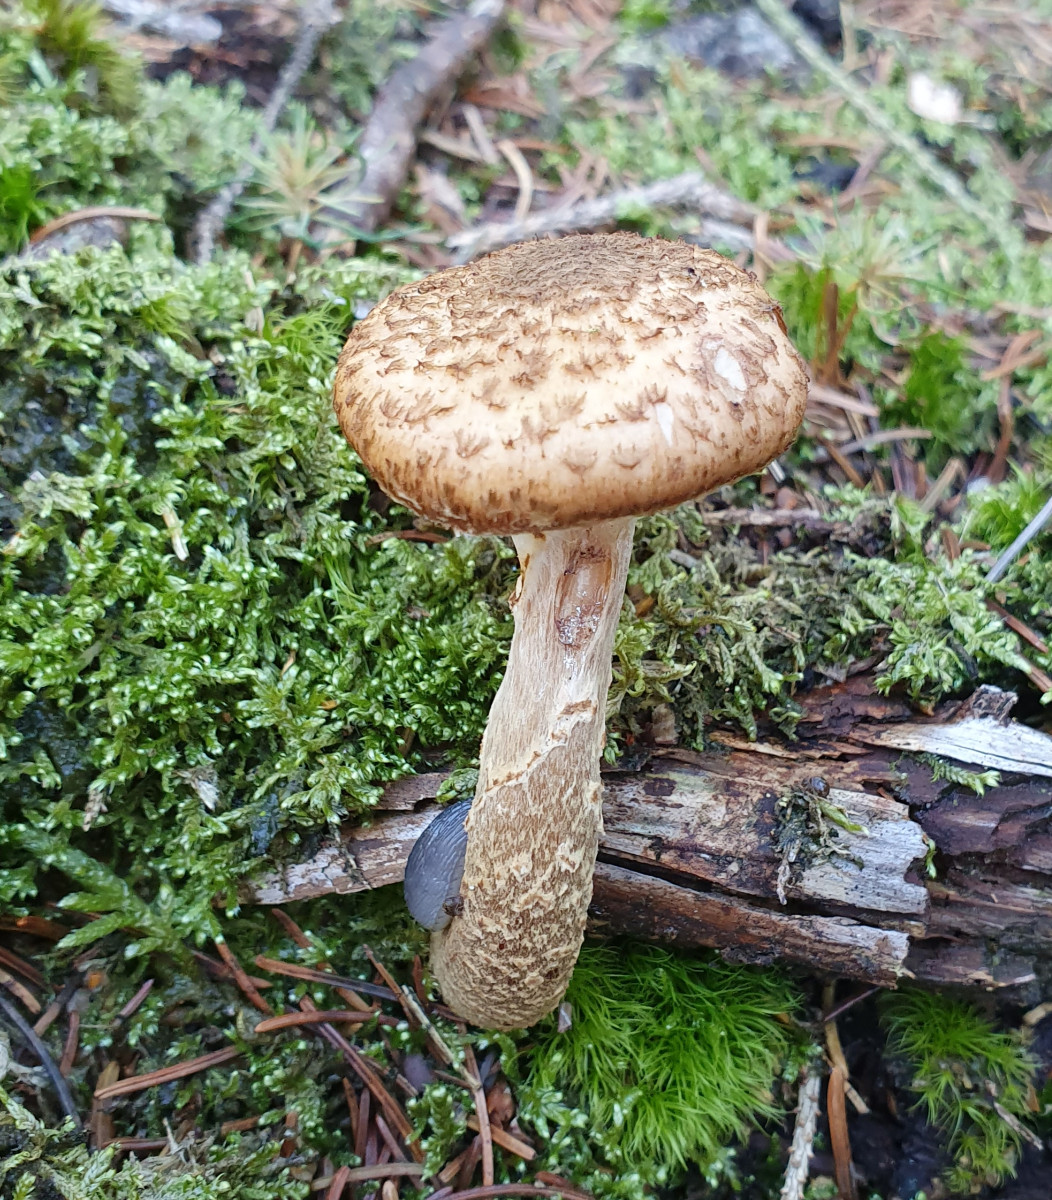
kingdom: Fungi
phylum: Basidiomycota
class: Agaricomycetes
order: Agaricales
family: Physalacriaceae
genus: Armillaria
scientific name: Armillaria ostoyae
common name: mørk honningsvamp
